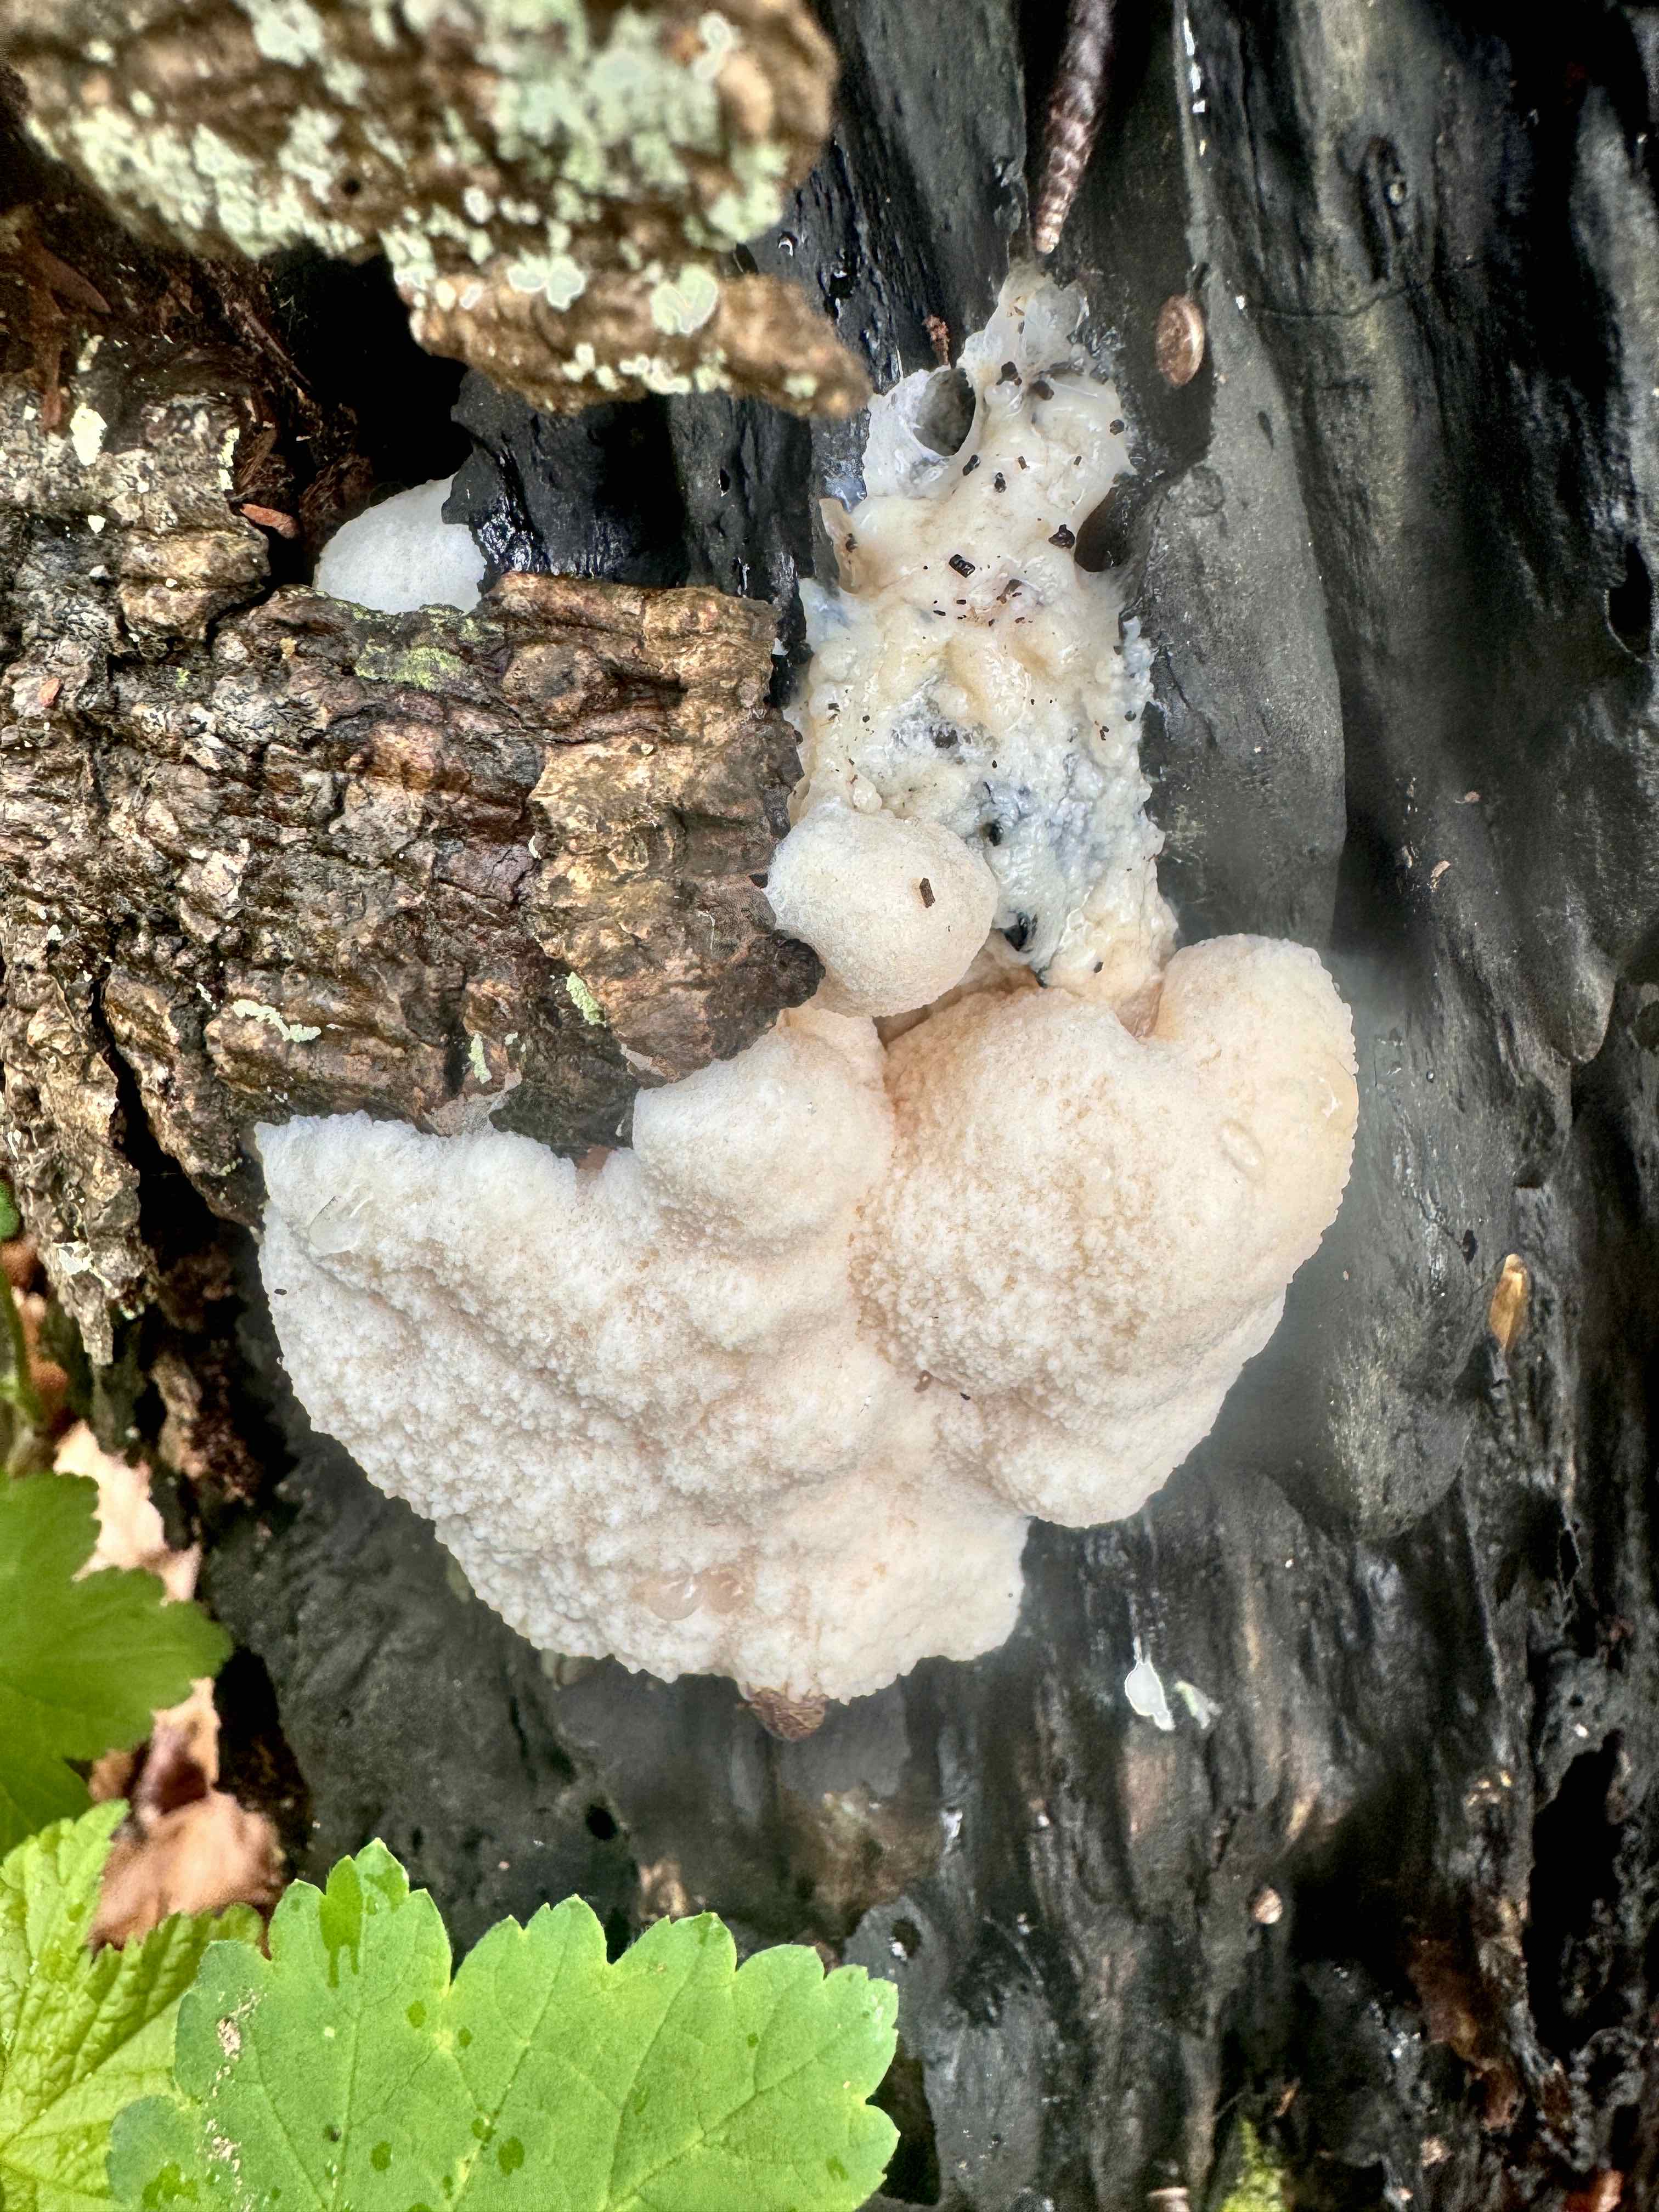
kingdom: Protozoa
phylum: Mycetozoa
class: Myxomycetes
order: Cribrariales
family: Tubiferaceae
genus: Reticularia
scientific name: Reticularia lycoperdon
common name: skinnende støvpude
